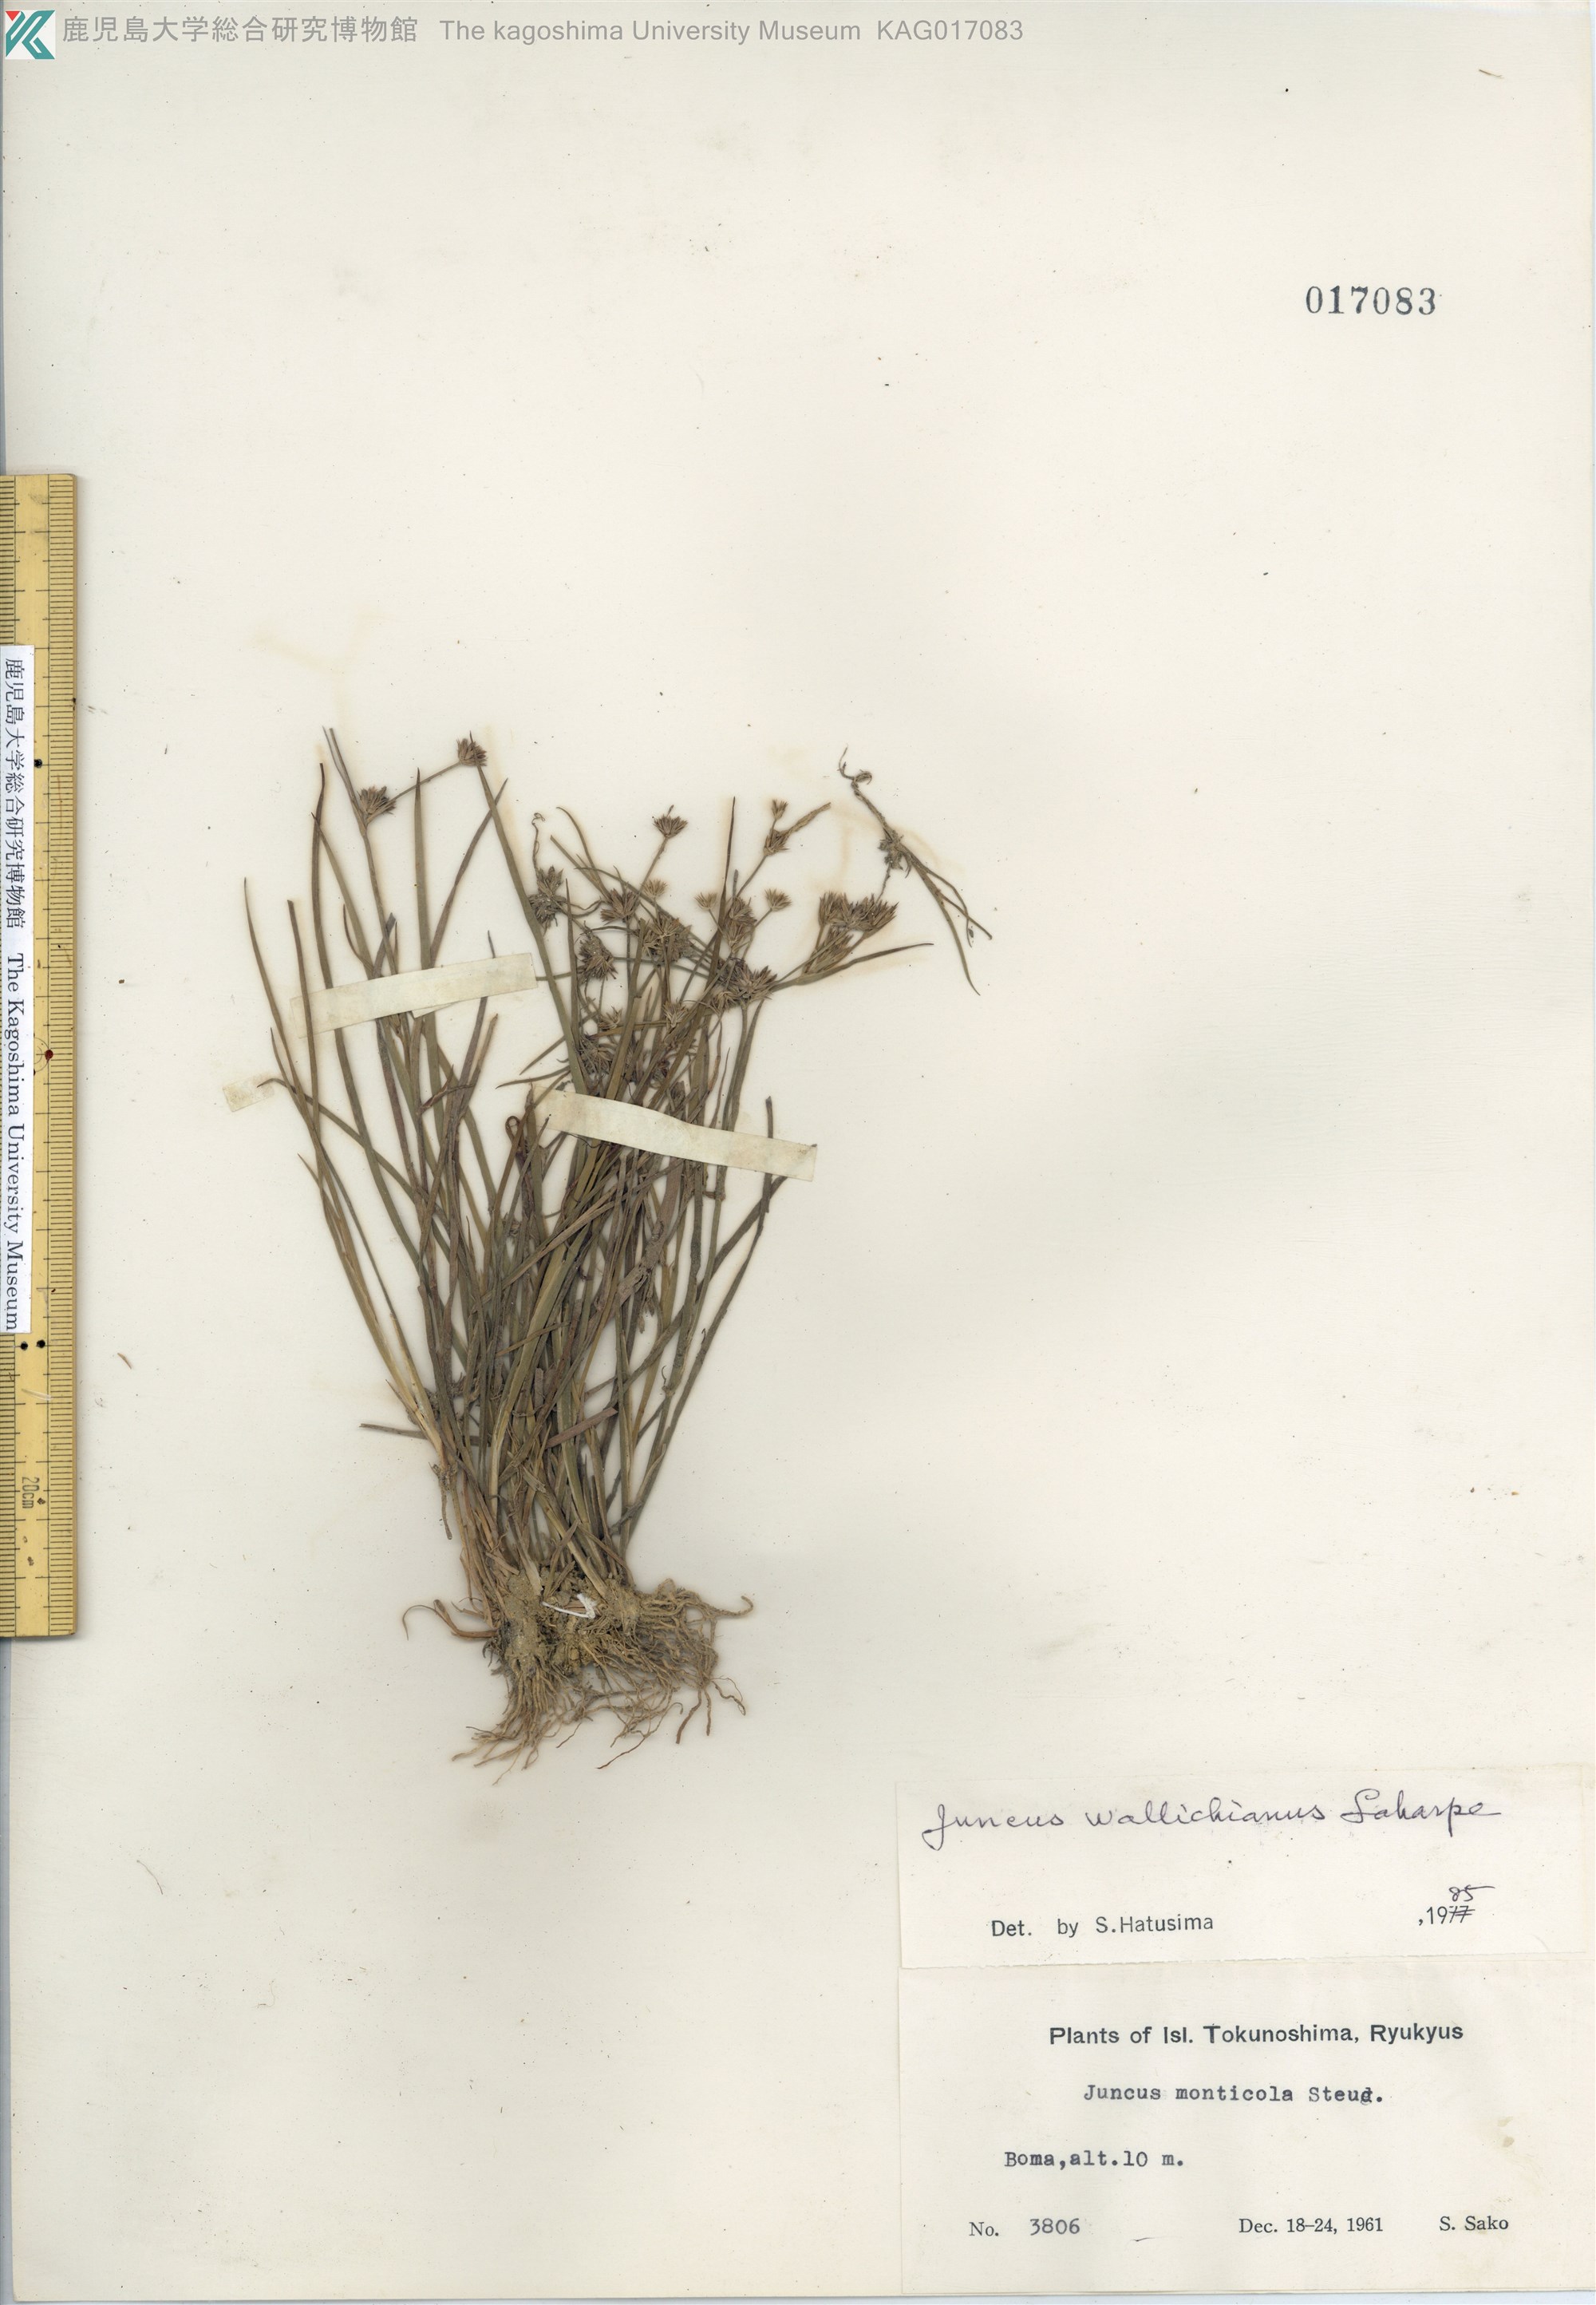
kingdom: Plantae
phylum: Tracheophyta
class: Liliopsida
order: Poales
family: Juncaceae
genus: Juncus
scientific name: Juncus prismatocarpus
